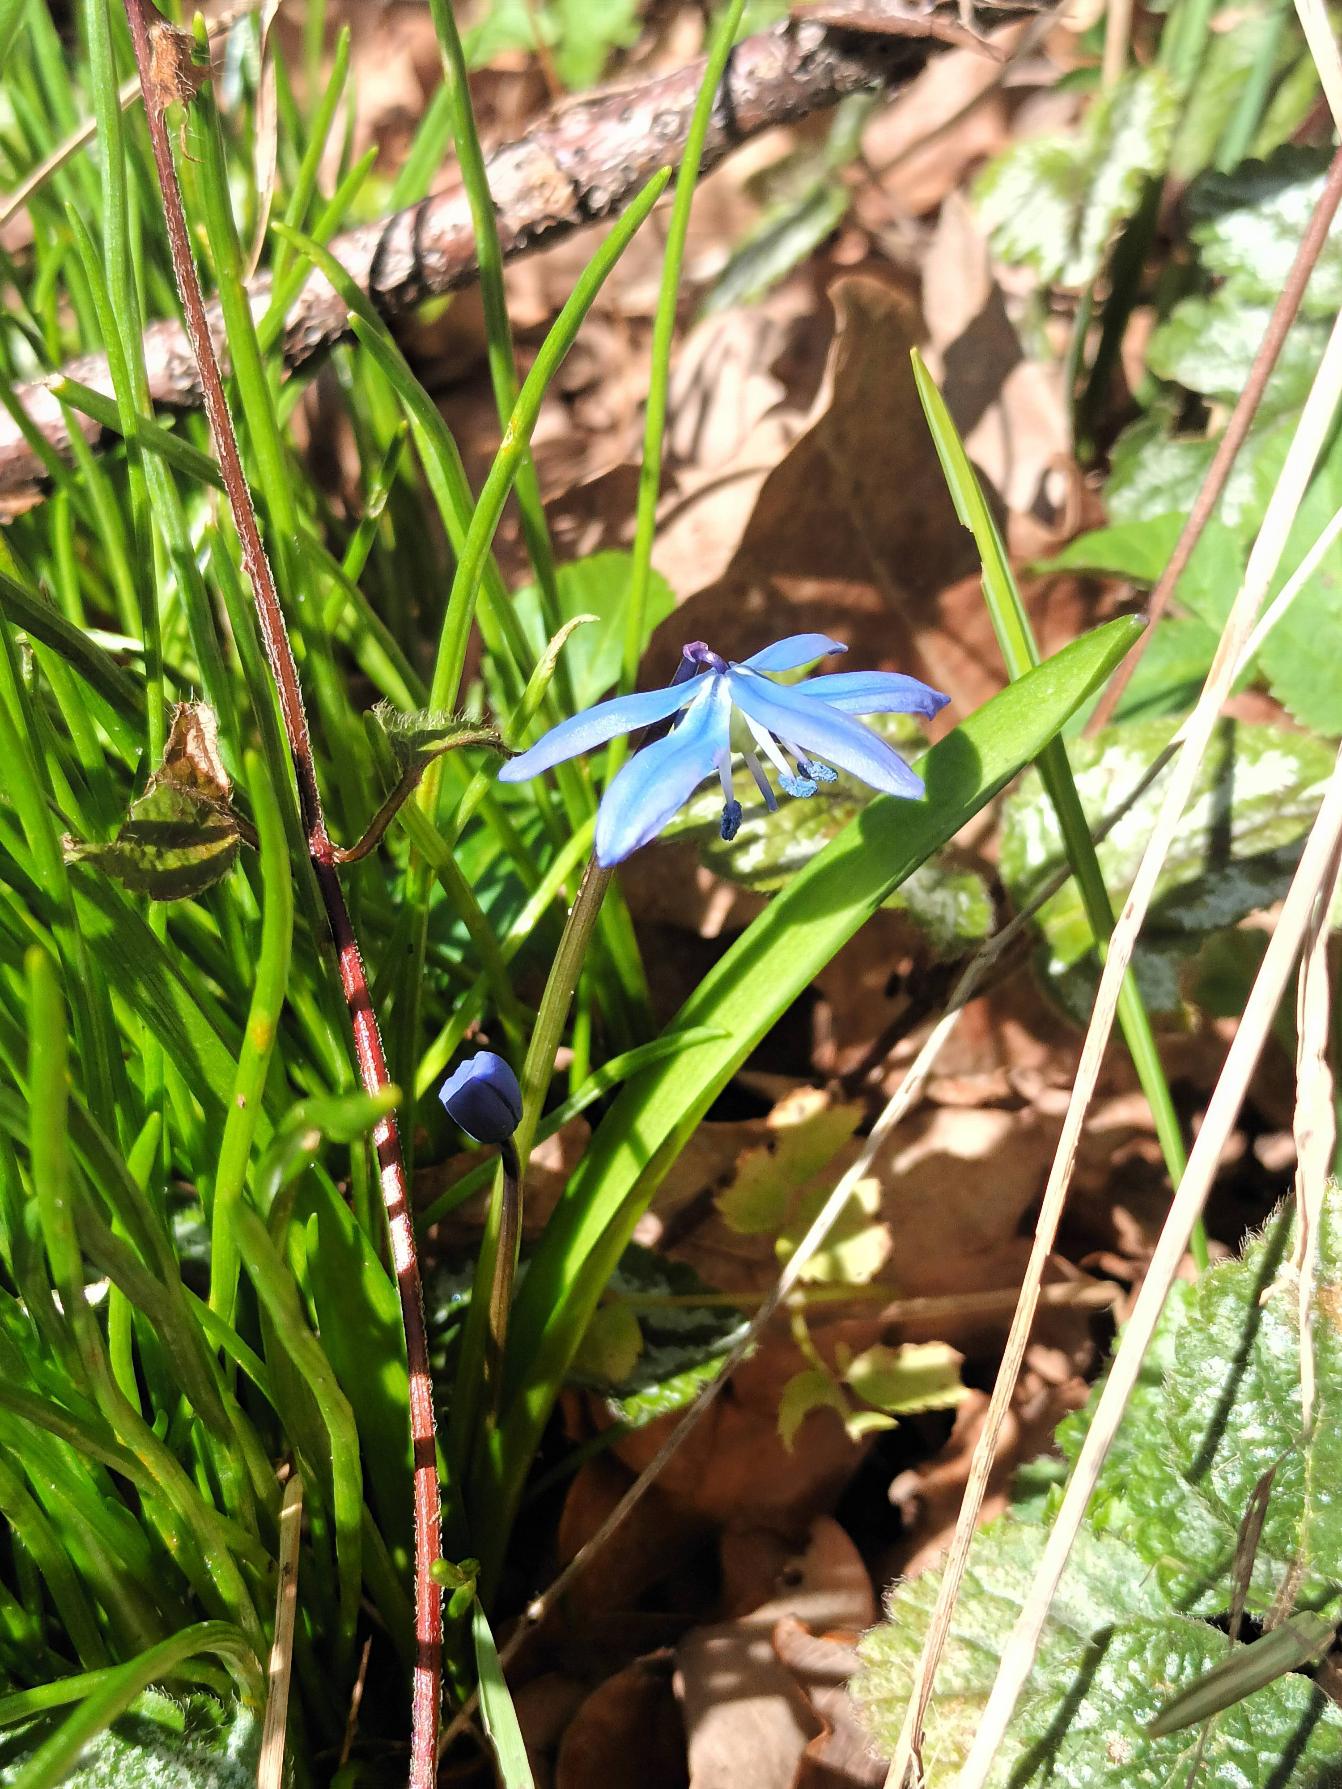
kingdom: Plantae
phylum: Tracheophyta
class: Liliopsida
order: Asparagales
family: Asparagaceae
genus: Scilla
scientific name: Scilla siberica
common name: Russisk skilla
